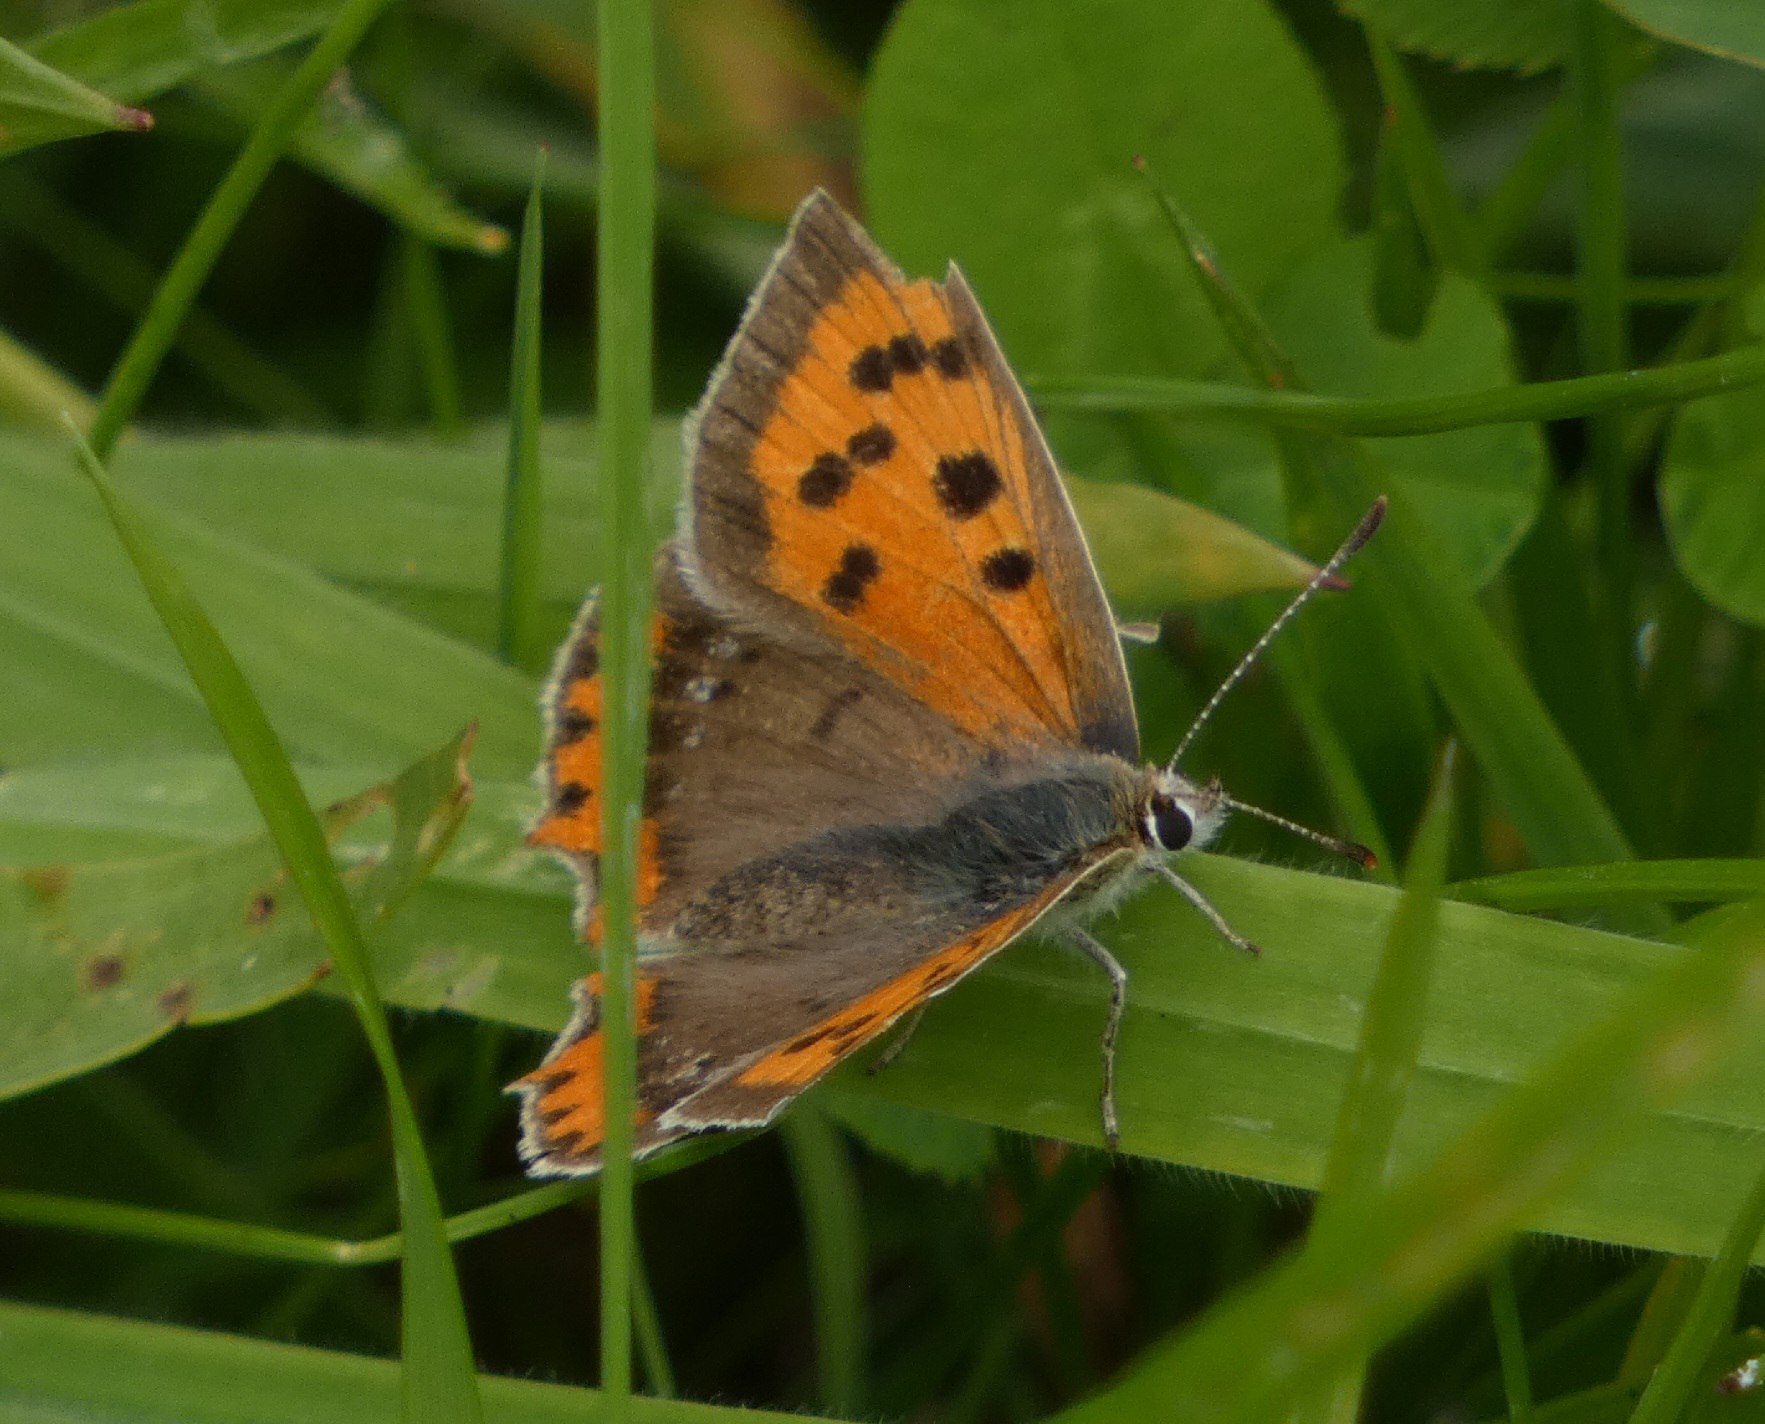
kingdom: Animalia
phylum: Arthropoda
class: Insecta
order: Lepidoptera
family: Lycaenidae
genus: Lycaena
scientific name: Lycaena phlaeas
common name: Lille ildfugl
